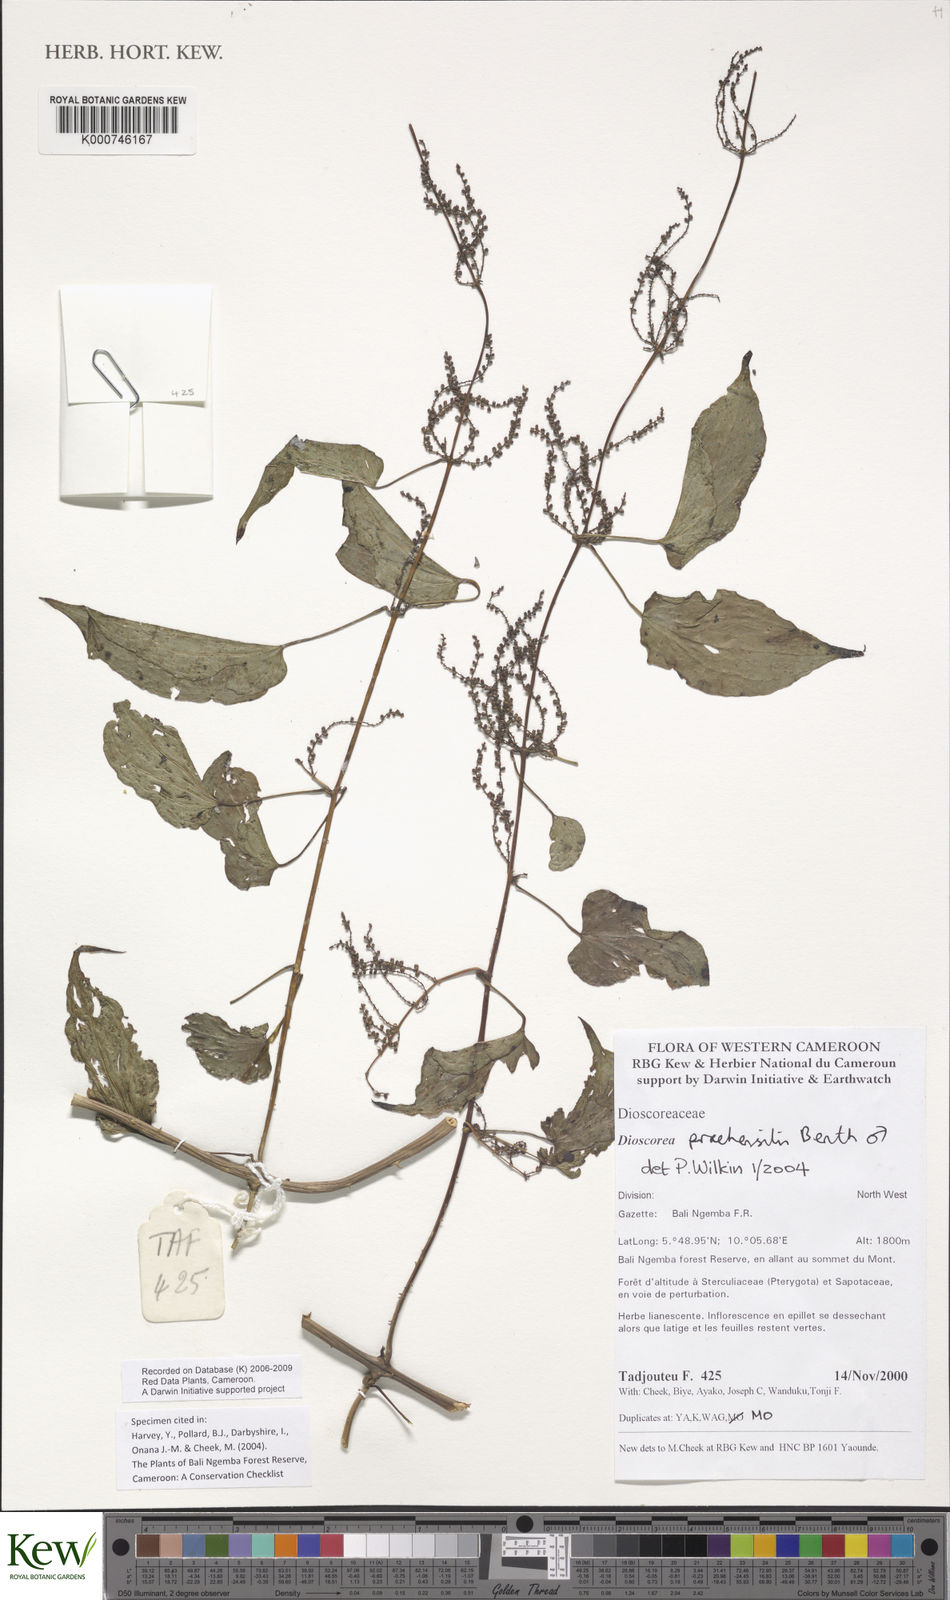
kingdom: Plantae
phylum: Tracheophyta
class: Liliopsida
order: Dioscoreales
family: Dioscoreaceae
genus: Dioscorea
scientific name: Dioscorea praehensilis
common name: Bush yam
